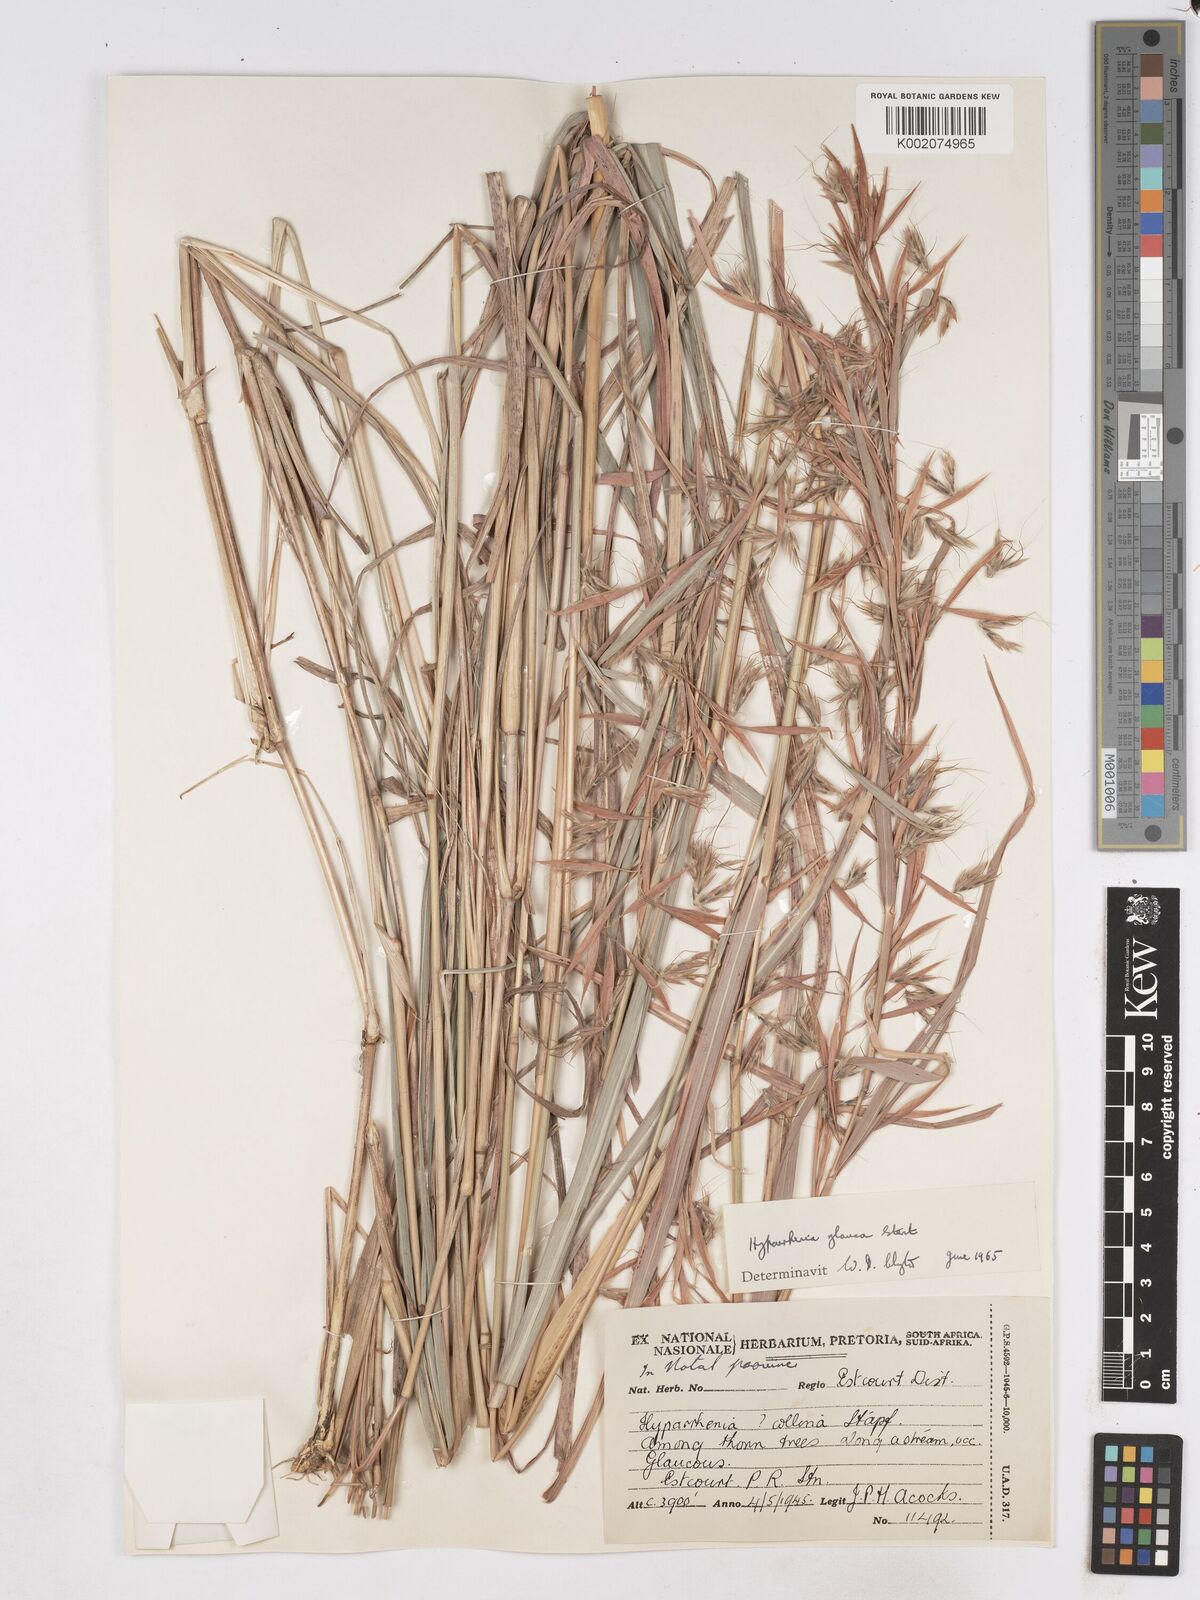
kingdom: Plantae
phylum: Tracheophyta
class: Liliopsida
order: Poales
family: Poaceae
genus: Hyparrhenia
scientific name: Hyparrhenia tamba
